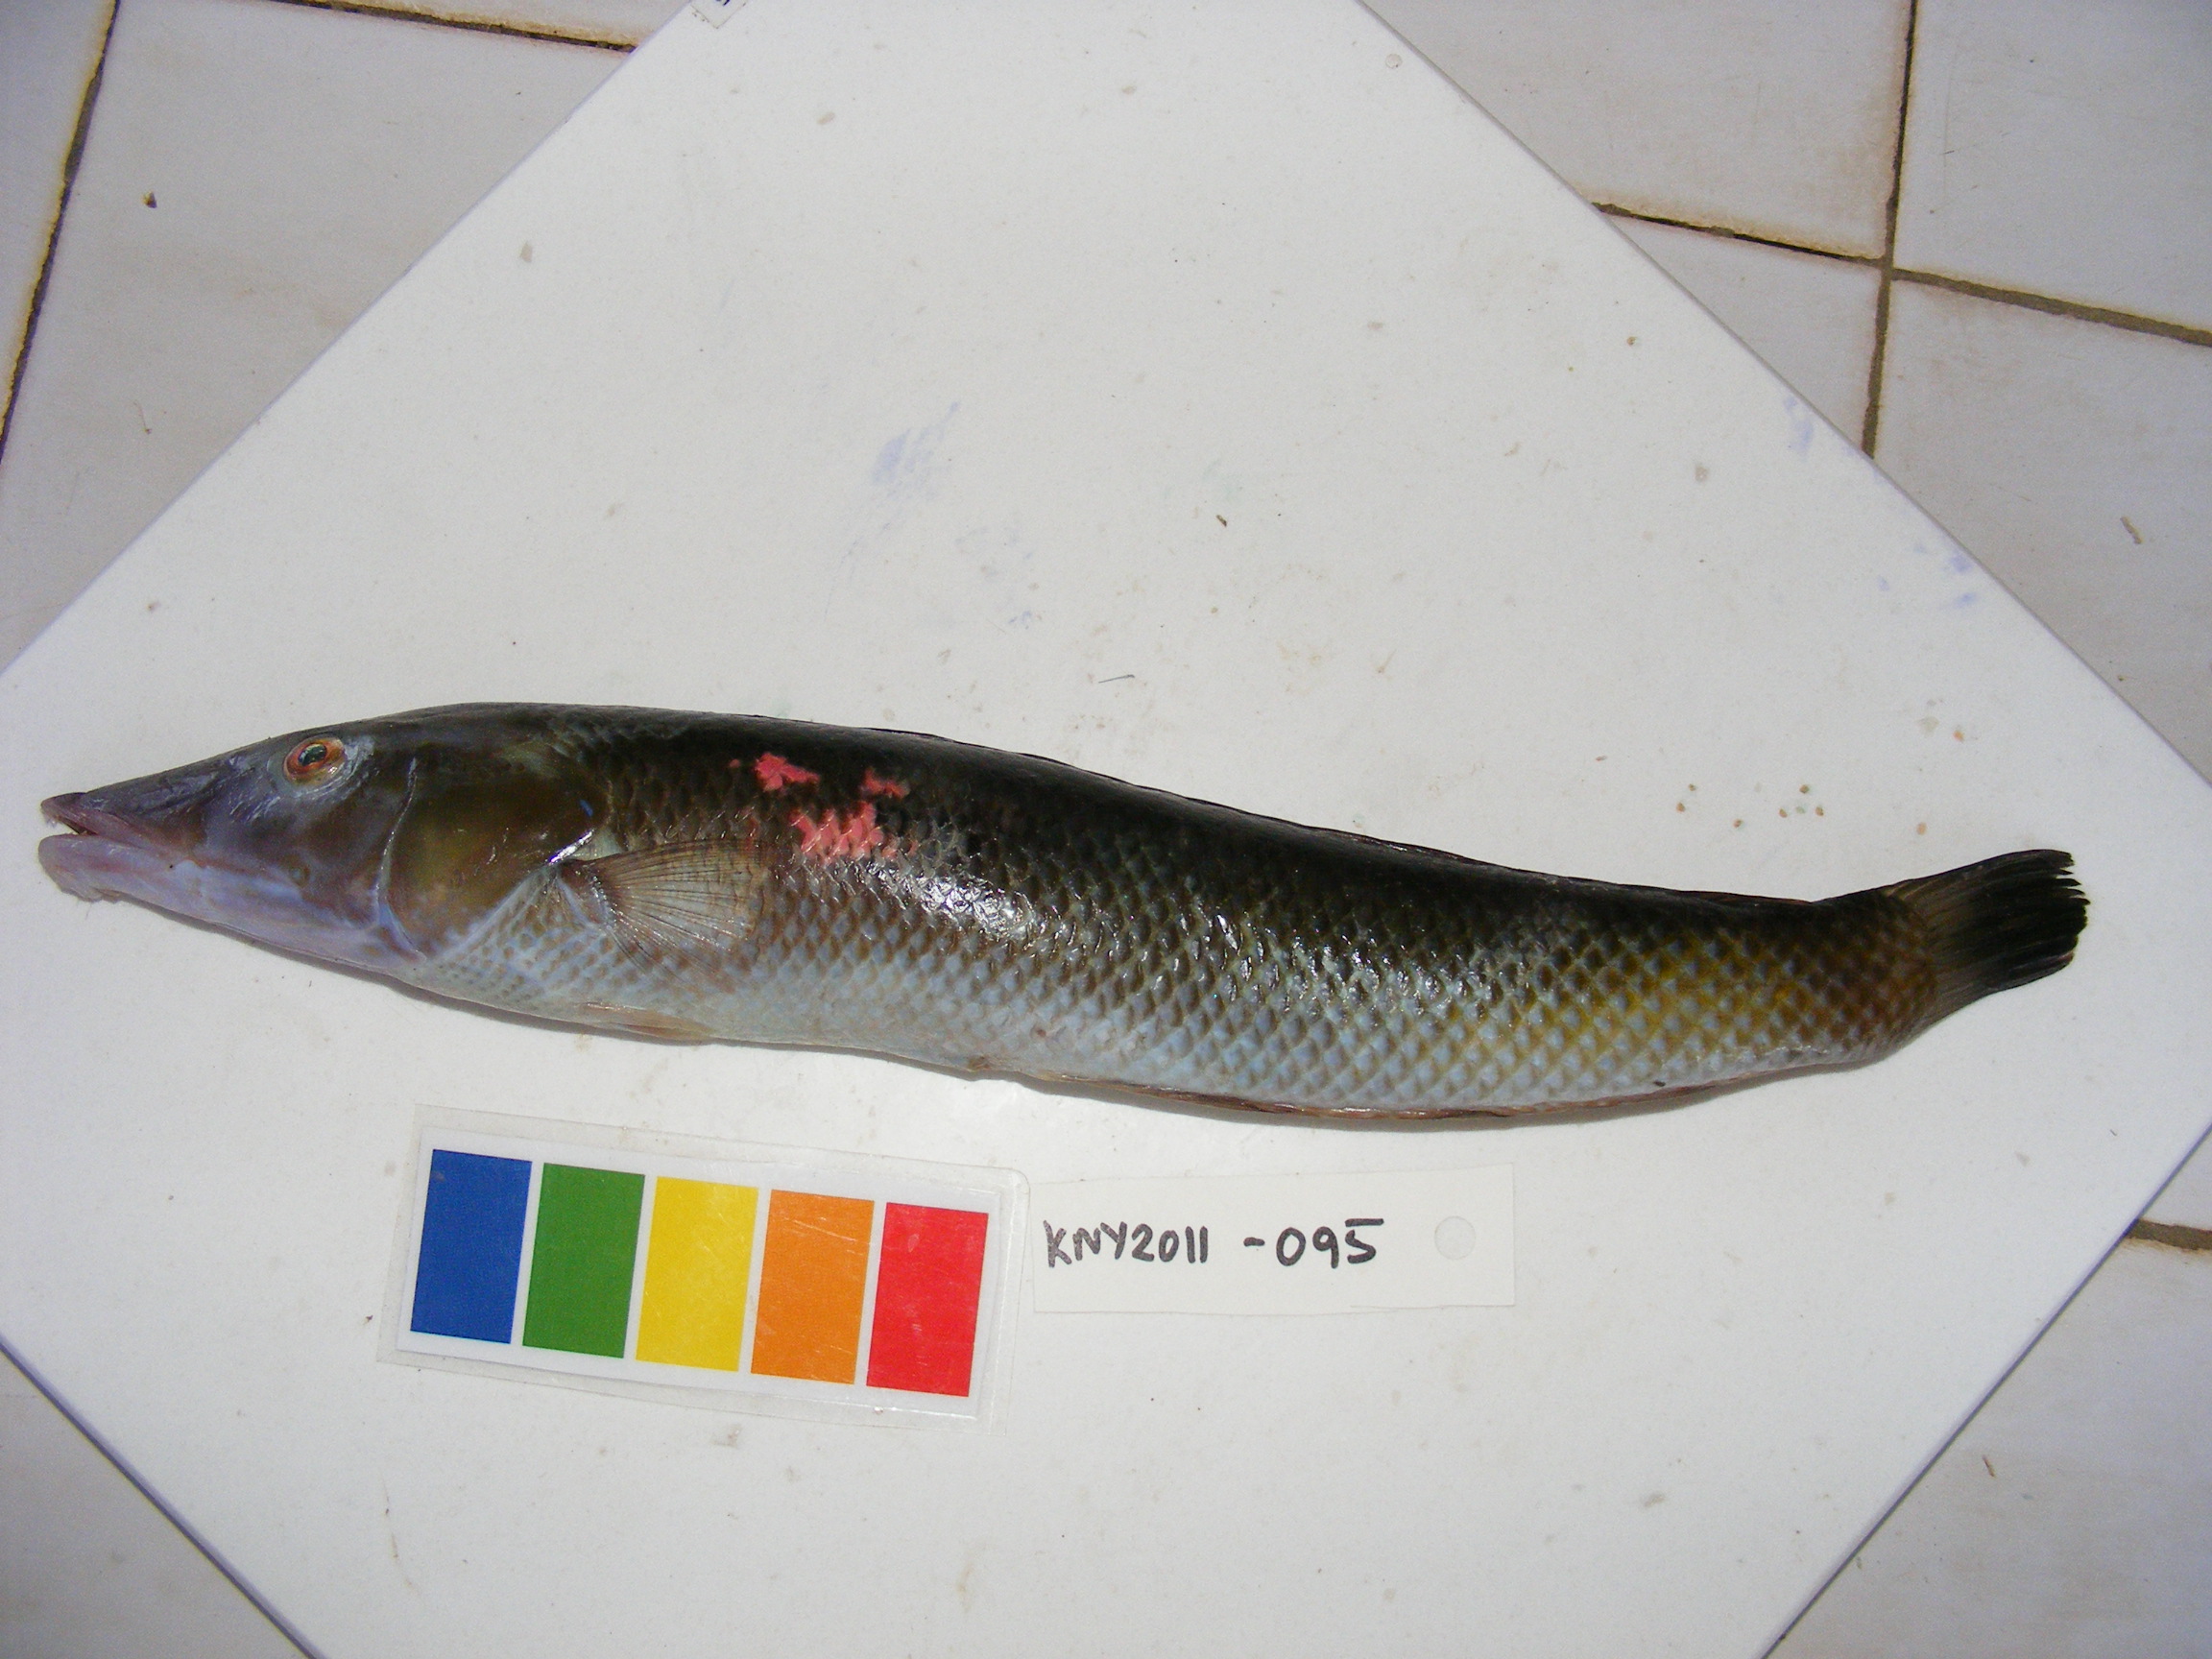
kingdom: Animalia
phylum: Chordata
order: Perciformes
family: Labridae
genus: Cheilio
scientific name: Cheilio inermis
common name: Cigar wrasse
